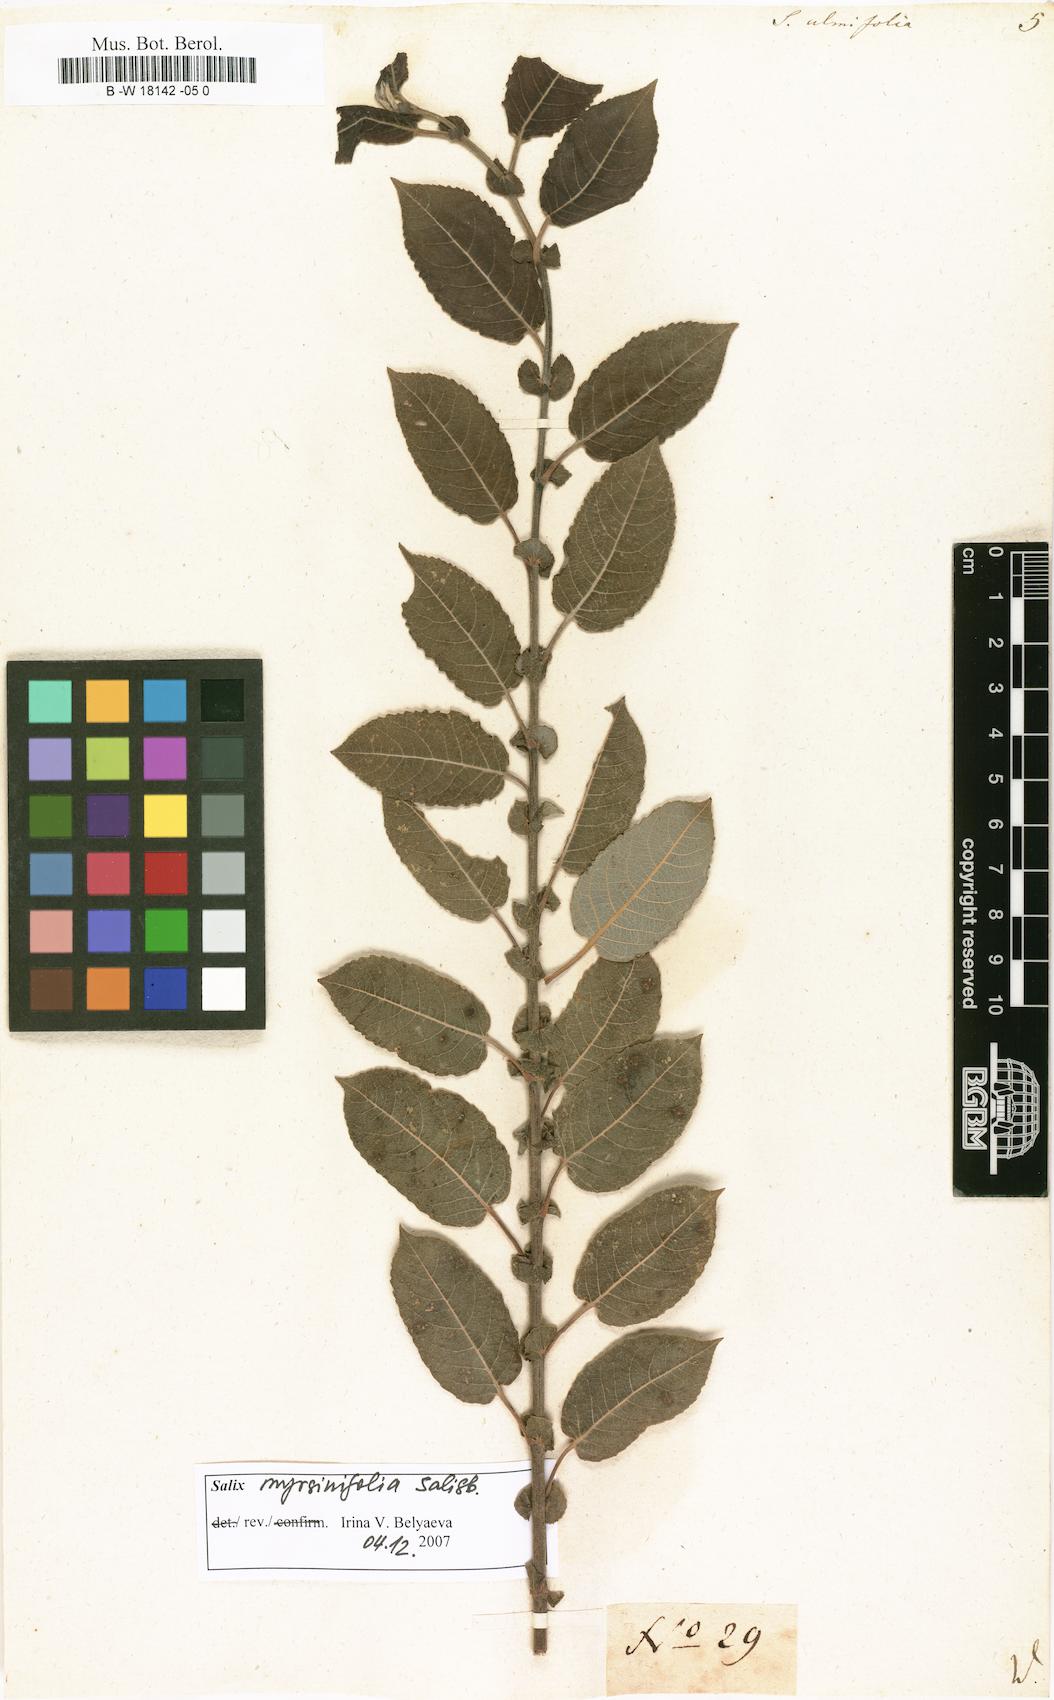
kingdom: Plantae
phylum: Tracheophyta
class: Magnoliopsida
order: Malpighiales
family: Salicaceae
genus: Salix
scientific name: Salix ulmifolia
